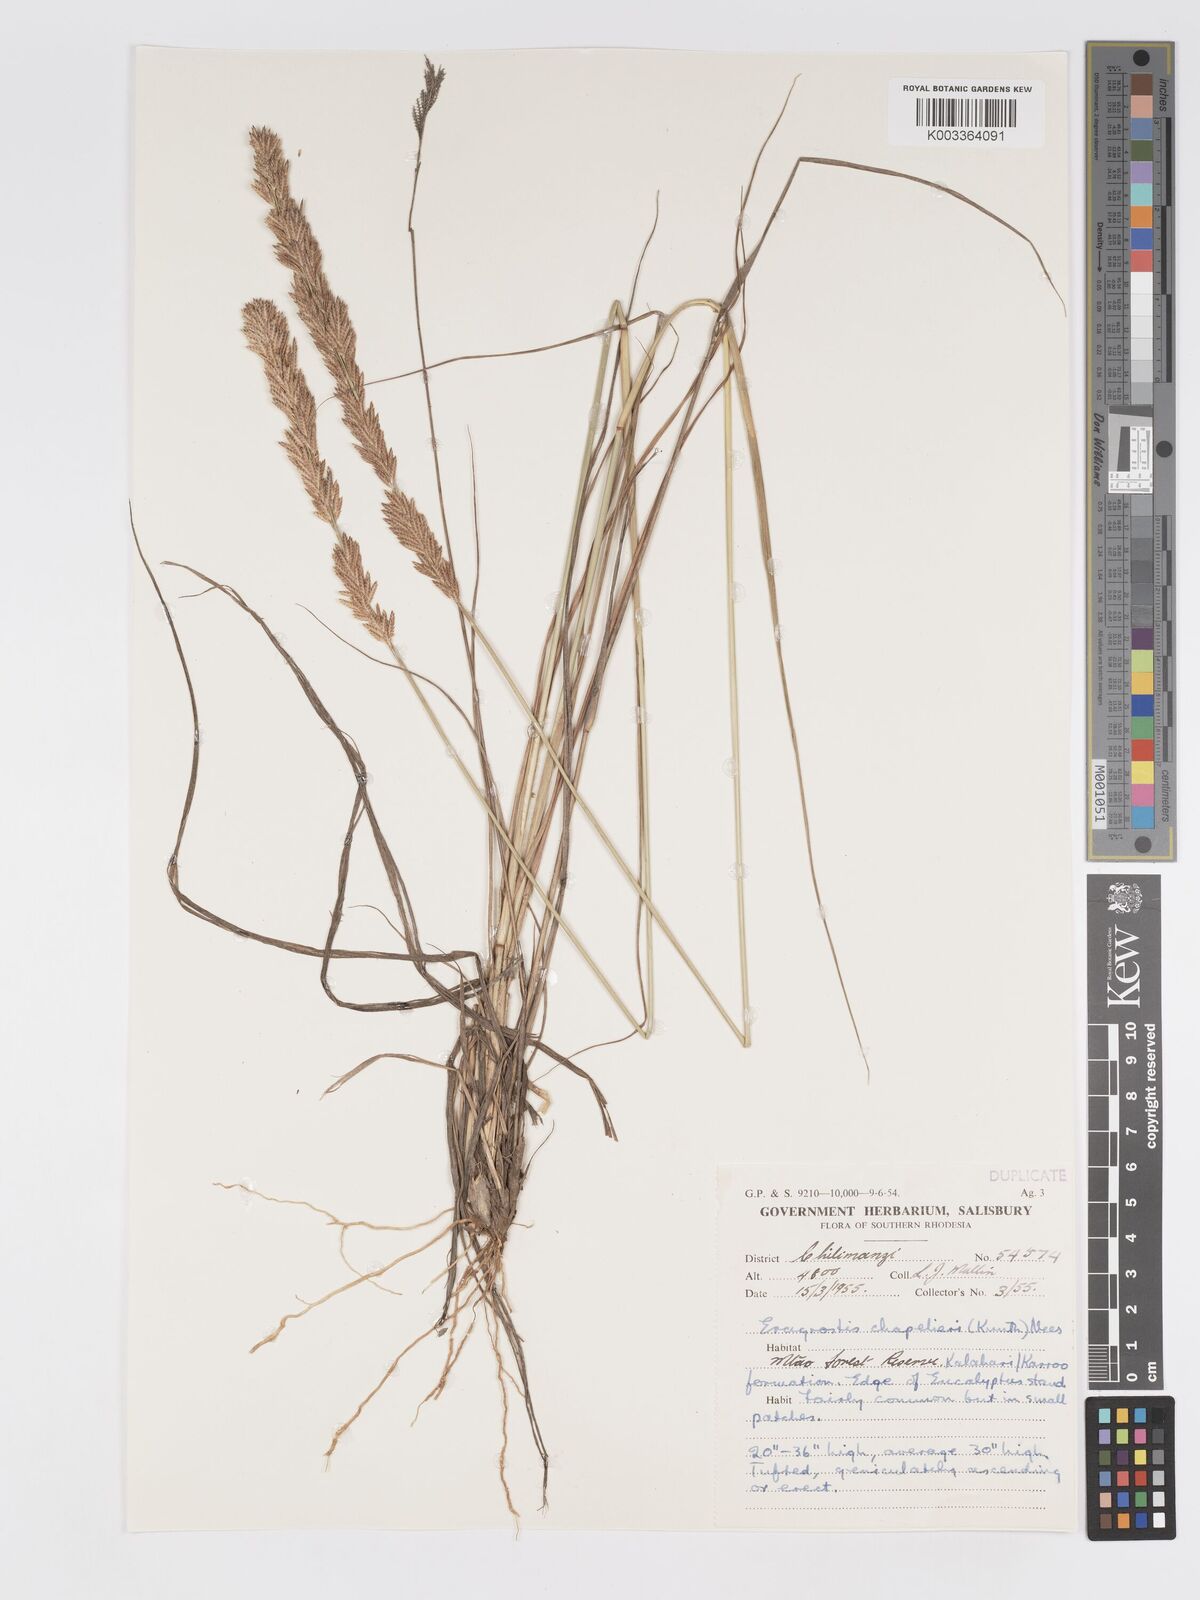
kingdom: Plantae
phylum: Tracheophyta
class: Liliopsida
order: Poales
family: Poaceae
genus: Eragrostis
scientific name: Eragrostis chapelieri
